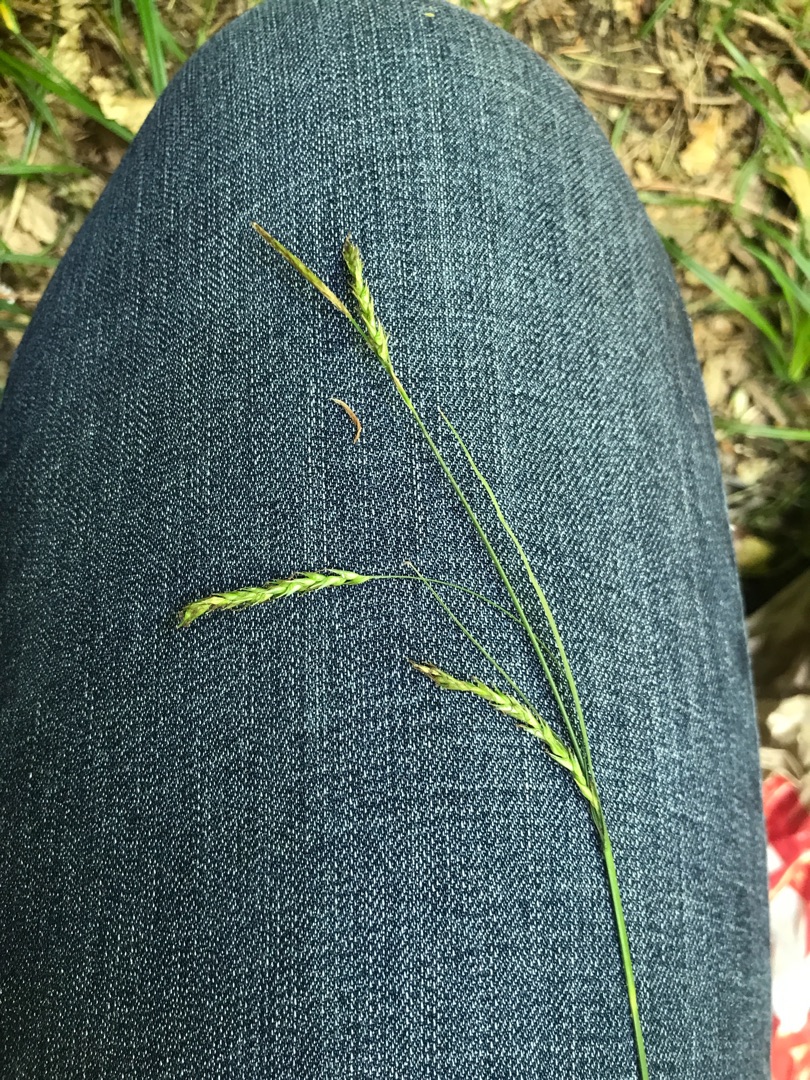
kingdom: Plantae
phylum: Tracheophyta
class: Liliopsida
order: Poales
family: Cyperaceae
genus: Carex
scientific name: Carex sylvatica
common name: Skov-star
